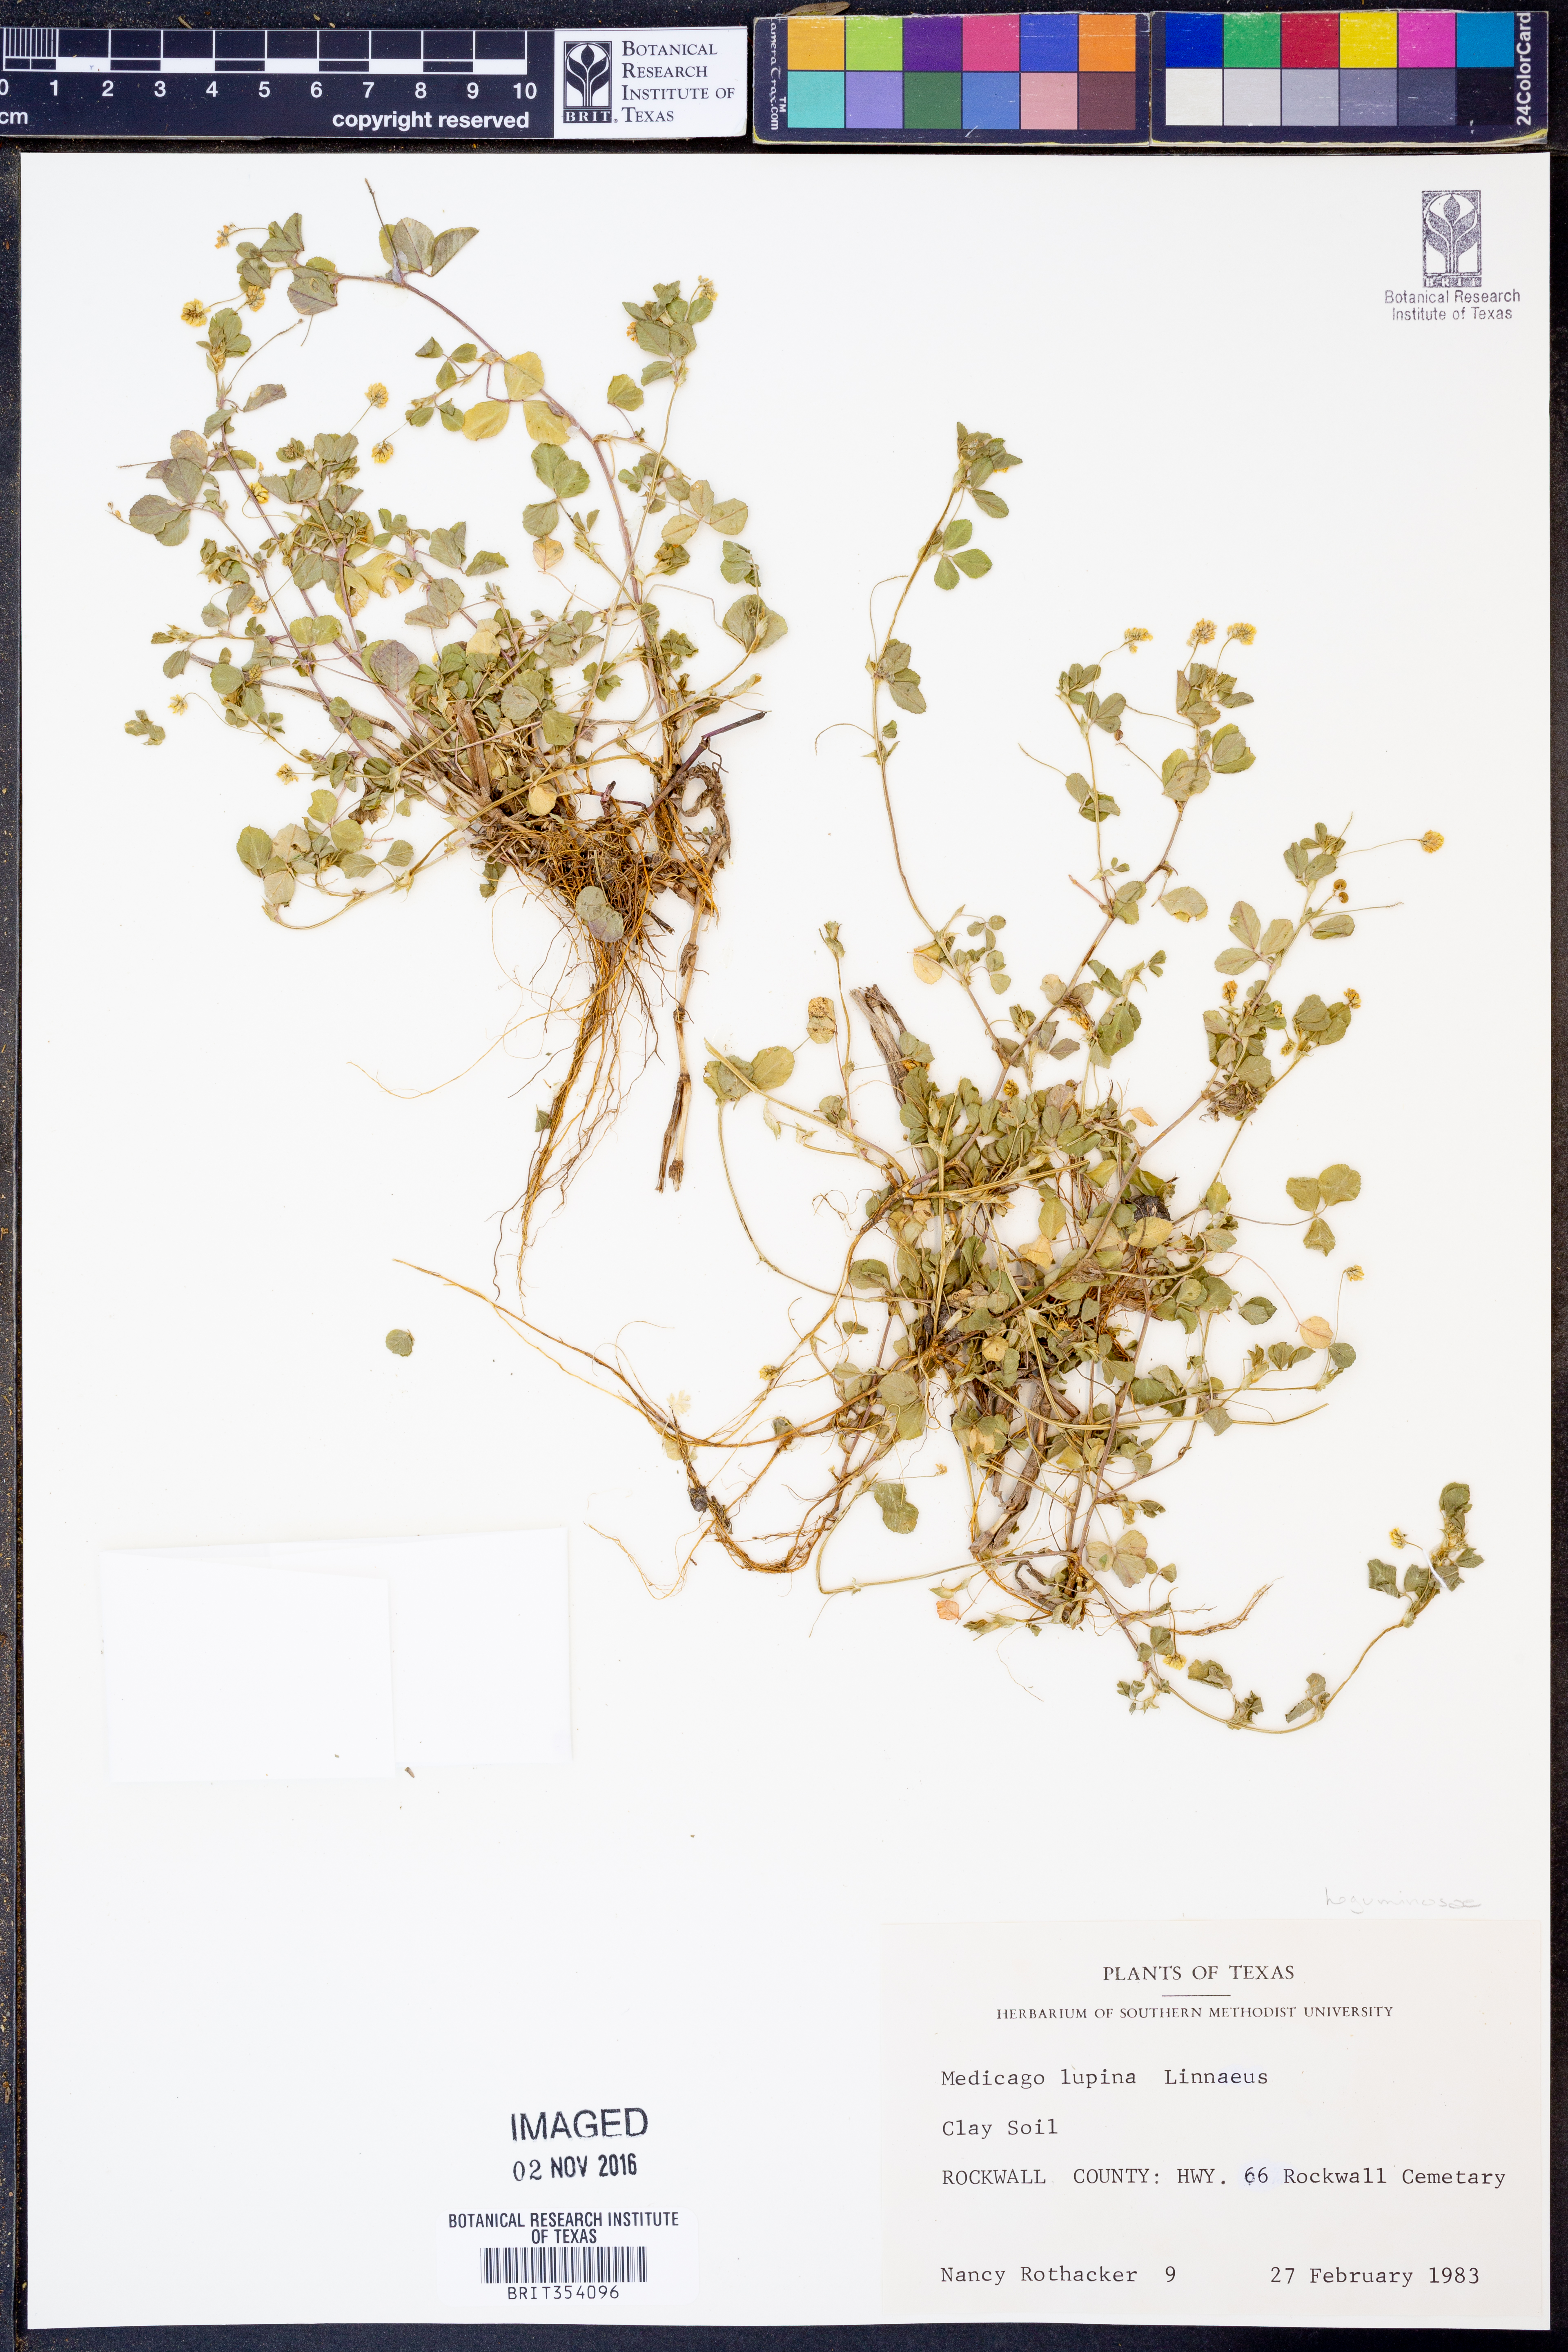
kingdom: Plantae
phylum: Tracheophyta
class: Magnoliopsida
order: Fabales
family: Fabaceae
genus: Medicago
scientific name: Medicago lupulina
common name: Black medick
